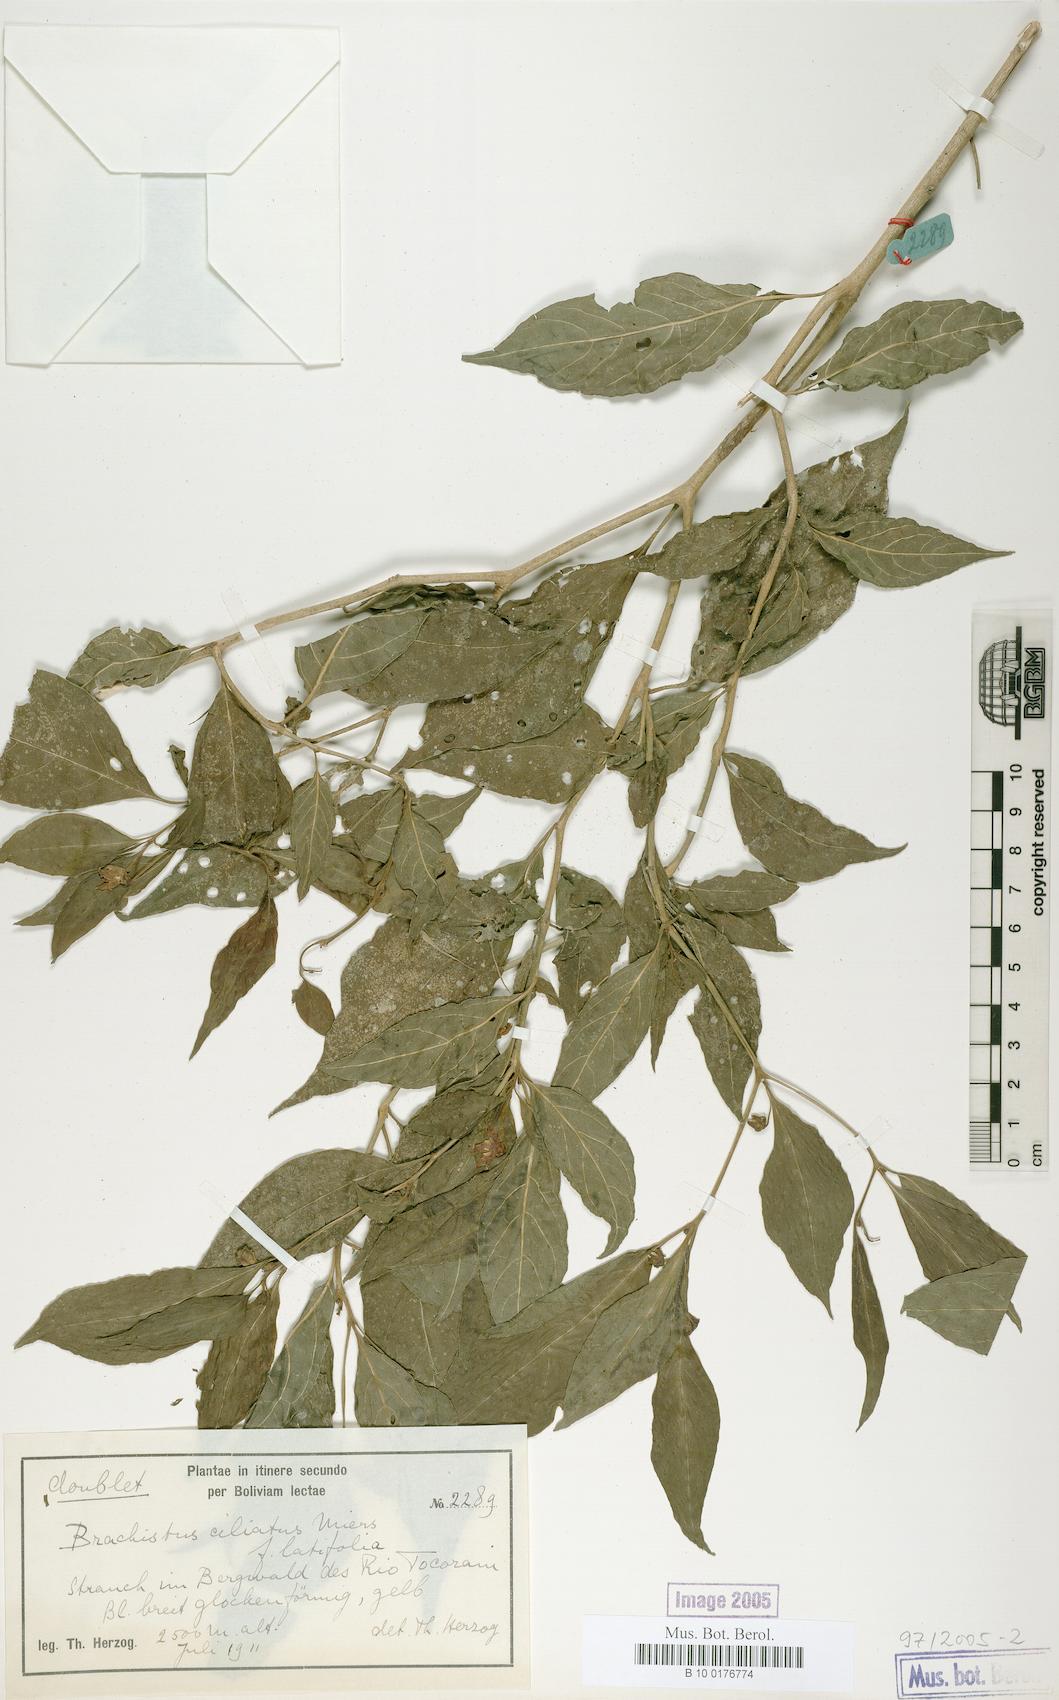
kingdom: Plantae
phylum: Tracheophyta
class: Magnoliopsida
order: Solanales
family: Solanaceae
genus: Capsicum
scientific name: Capsicum rhomboideum
